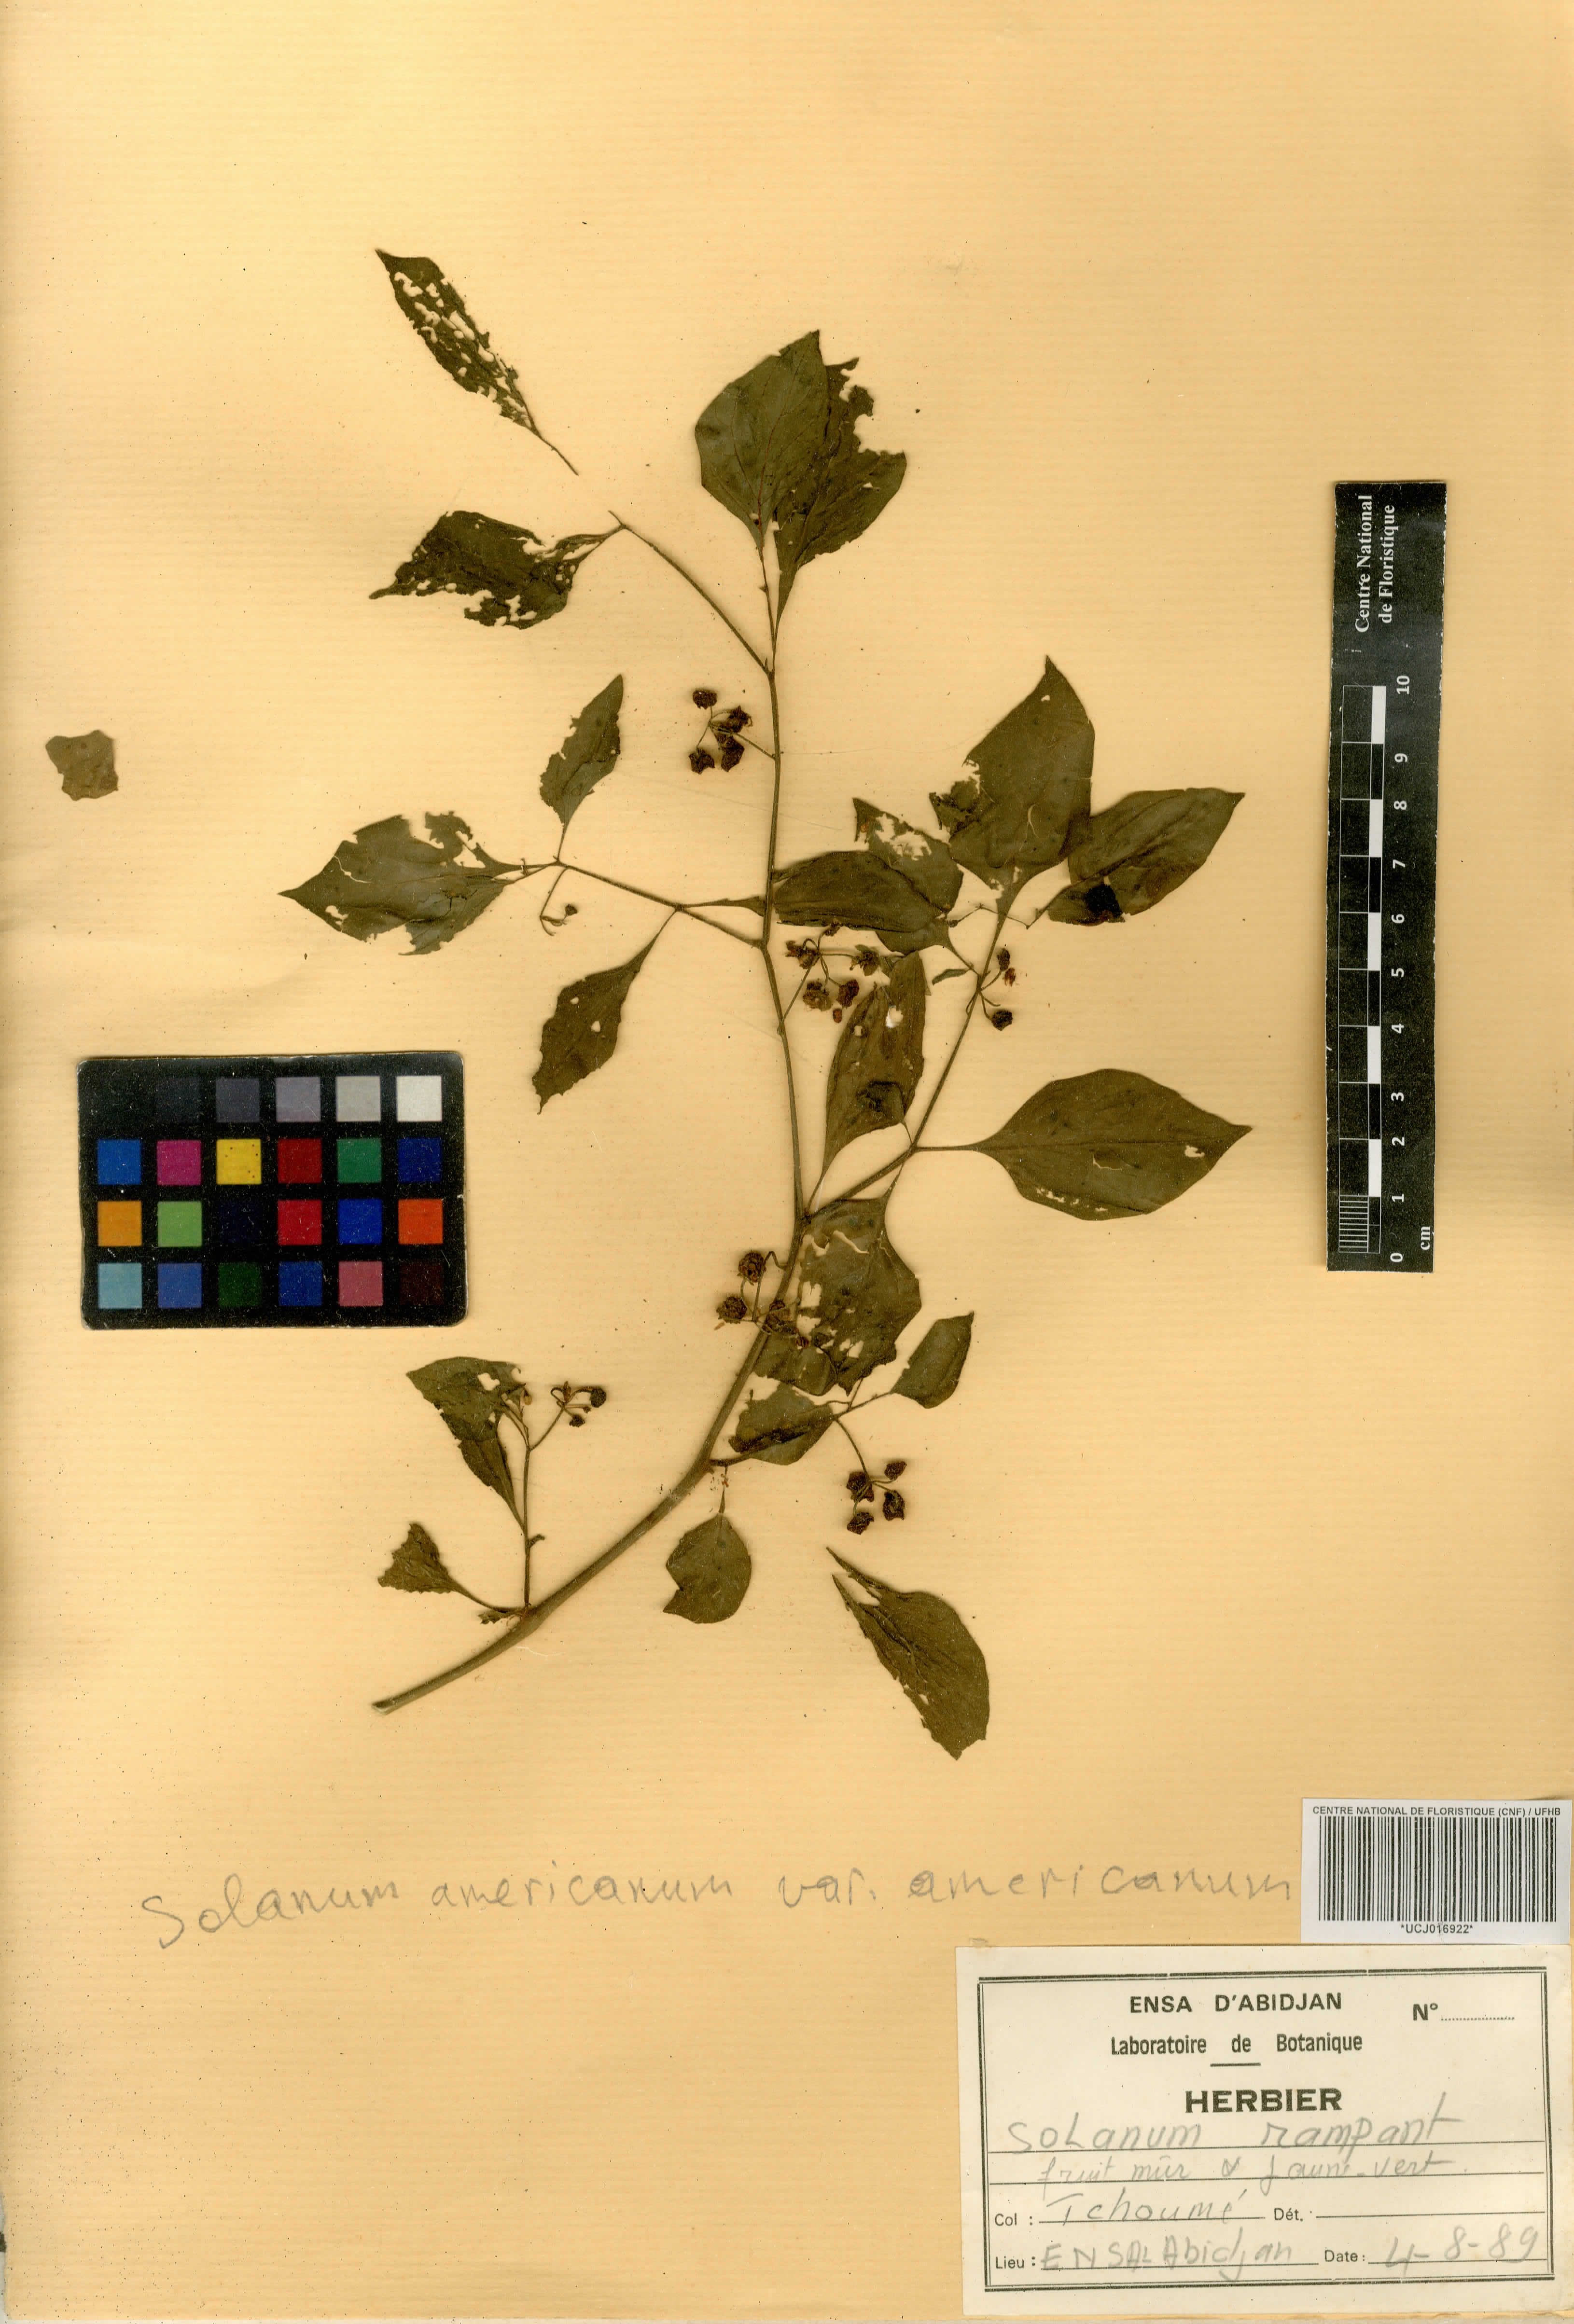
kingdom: Plantae
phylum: Tracheophyta
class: Magnoliopsida
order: Solanales
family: Solanaceae
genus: Solanum
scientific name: Solanum tuberosum
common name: Potato
